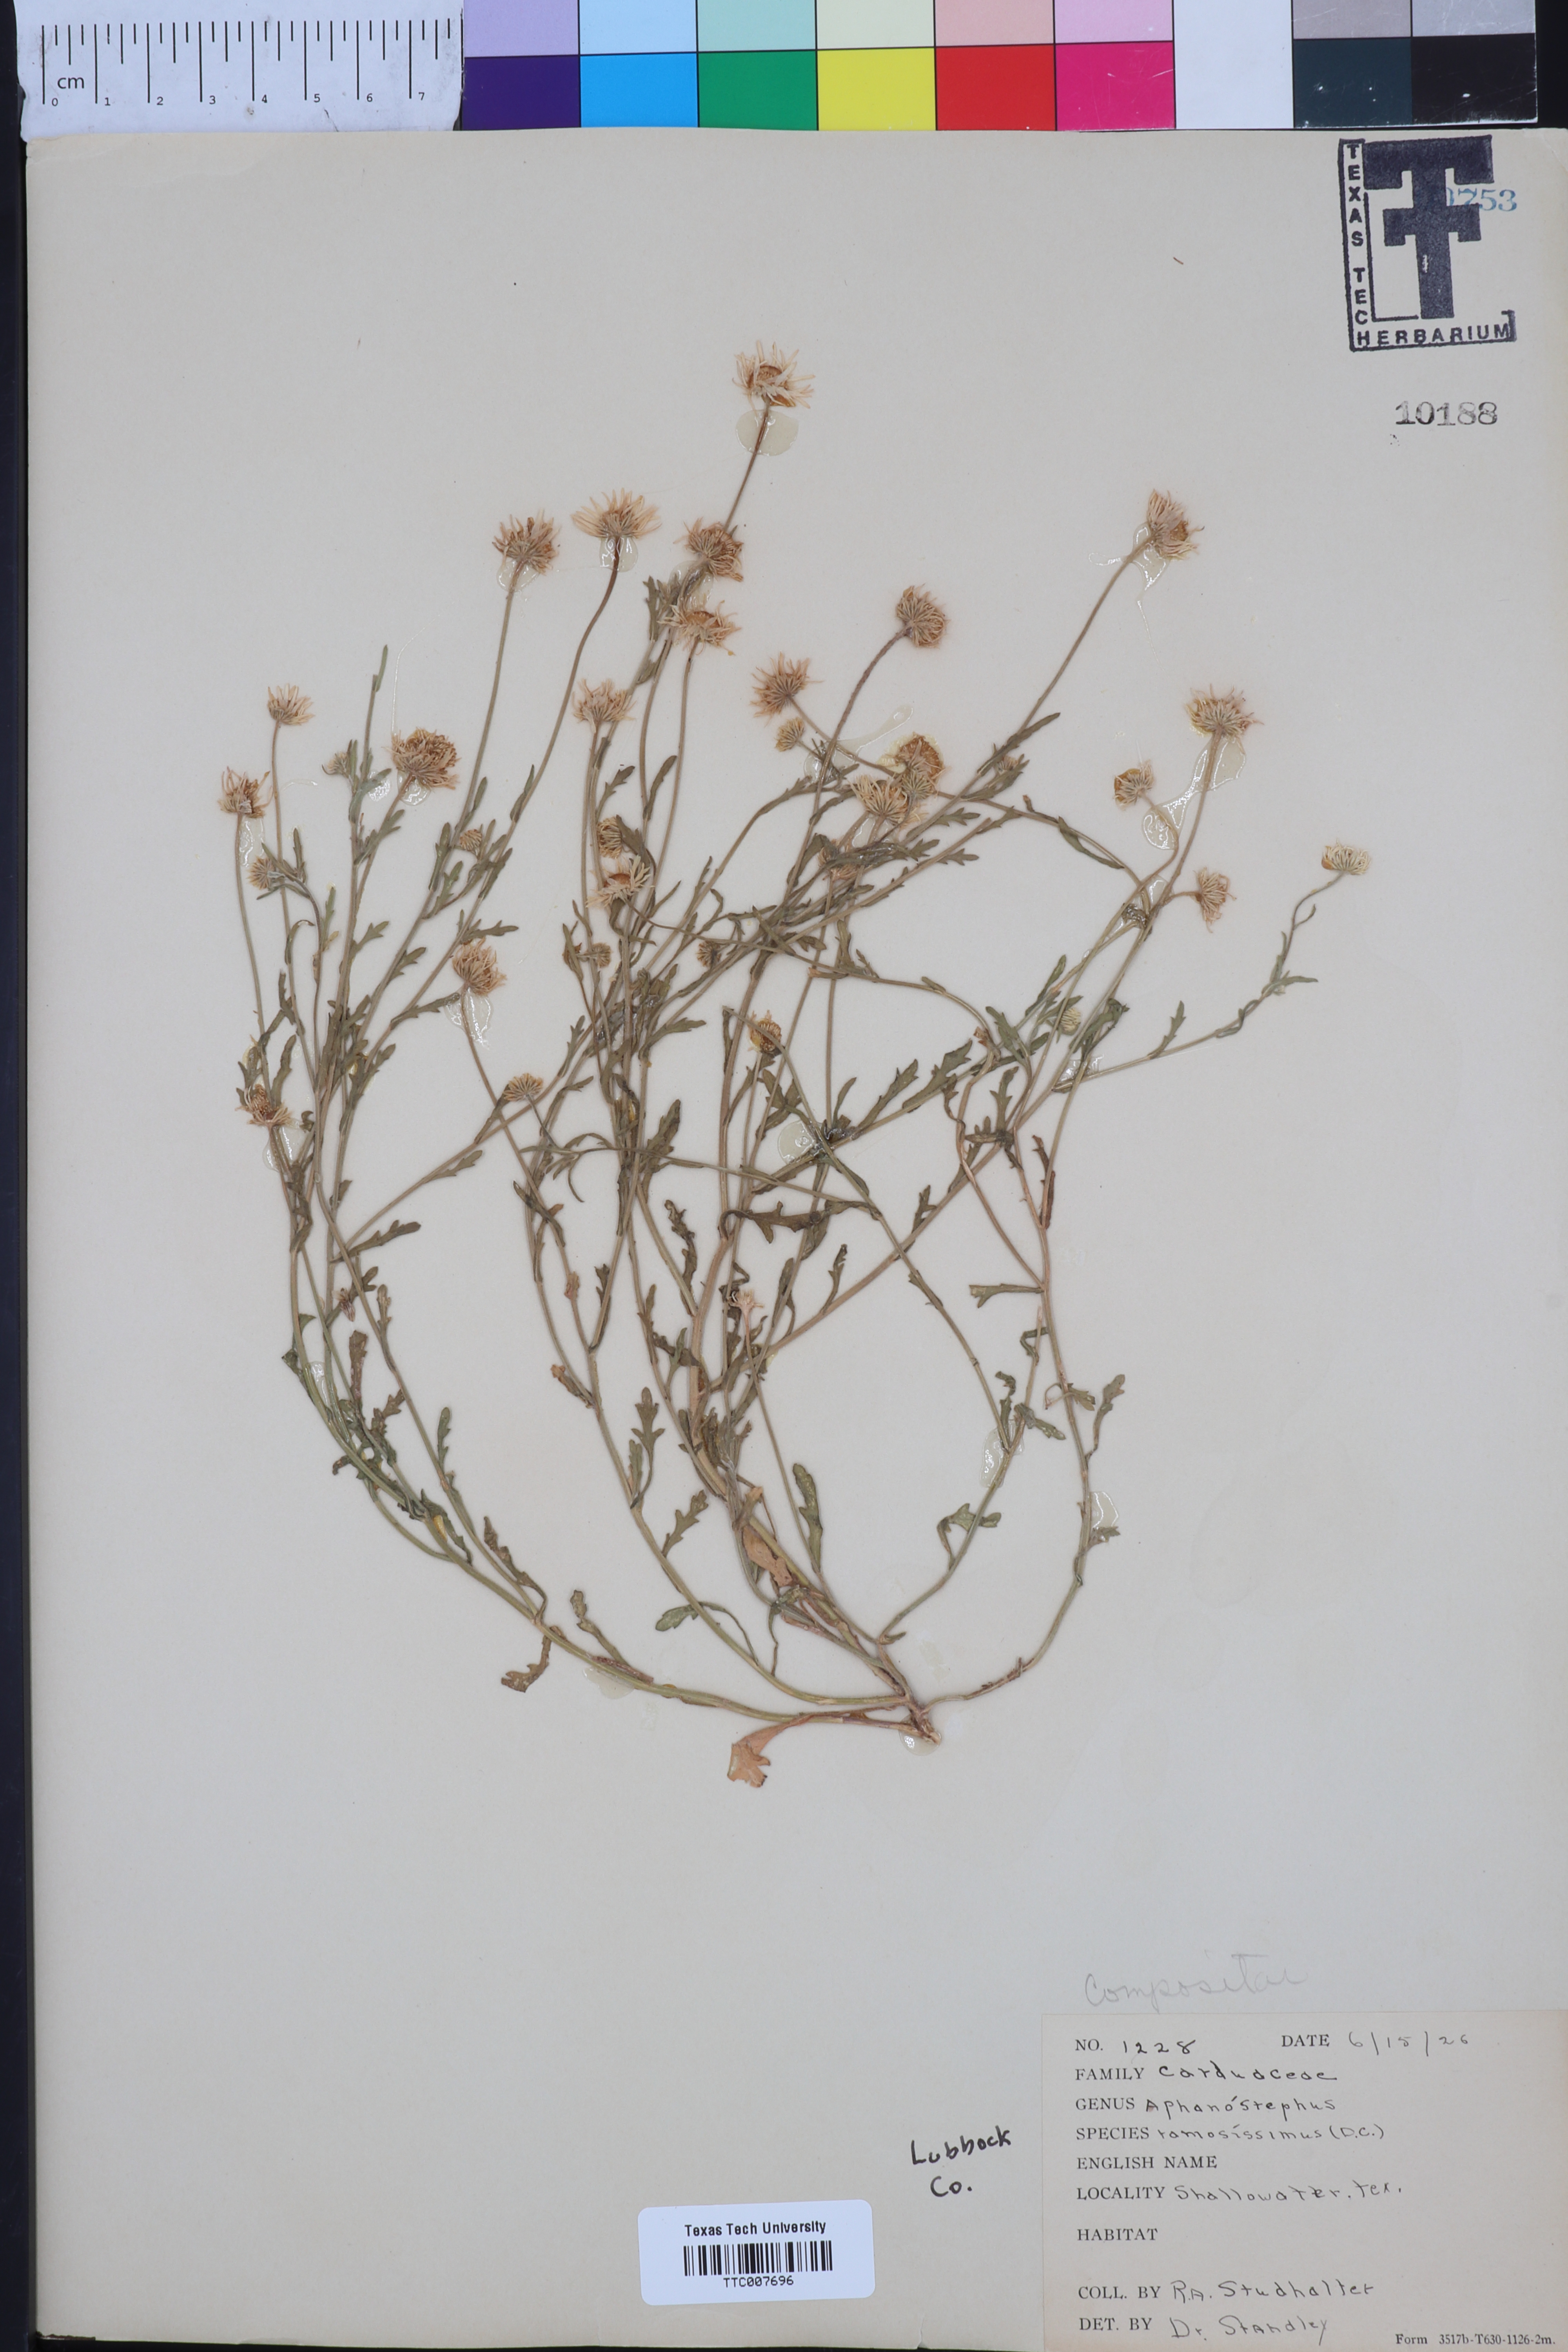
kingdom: Plantae
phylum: Tracheophyta
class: Magnoliopsida
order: Asterales
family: Asteraceae
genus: Aphanostephus
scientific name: Aphanostephus ramosissimus
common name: Plains lazy daisy
